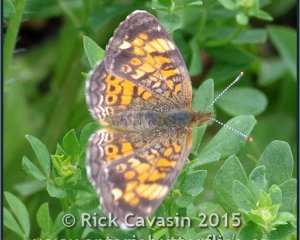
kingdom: Animalia
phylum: Arthropoda
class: Insecta
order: Lepidoptera
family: Nymphalidae
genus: Phyciodes
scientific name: Phyciodes tharos
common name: Northern Crescent
